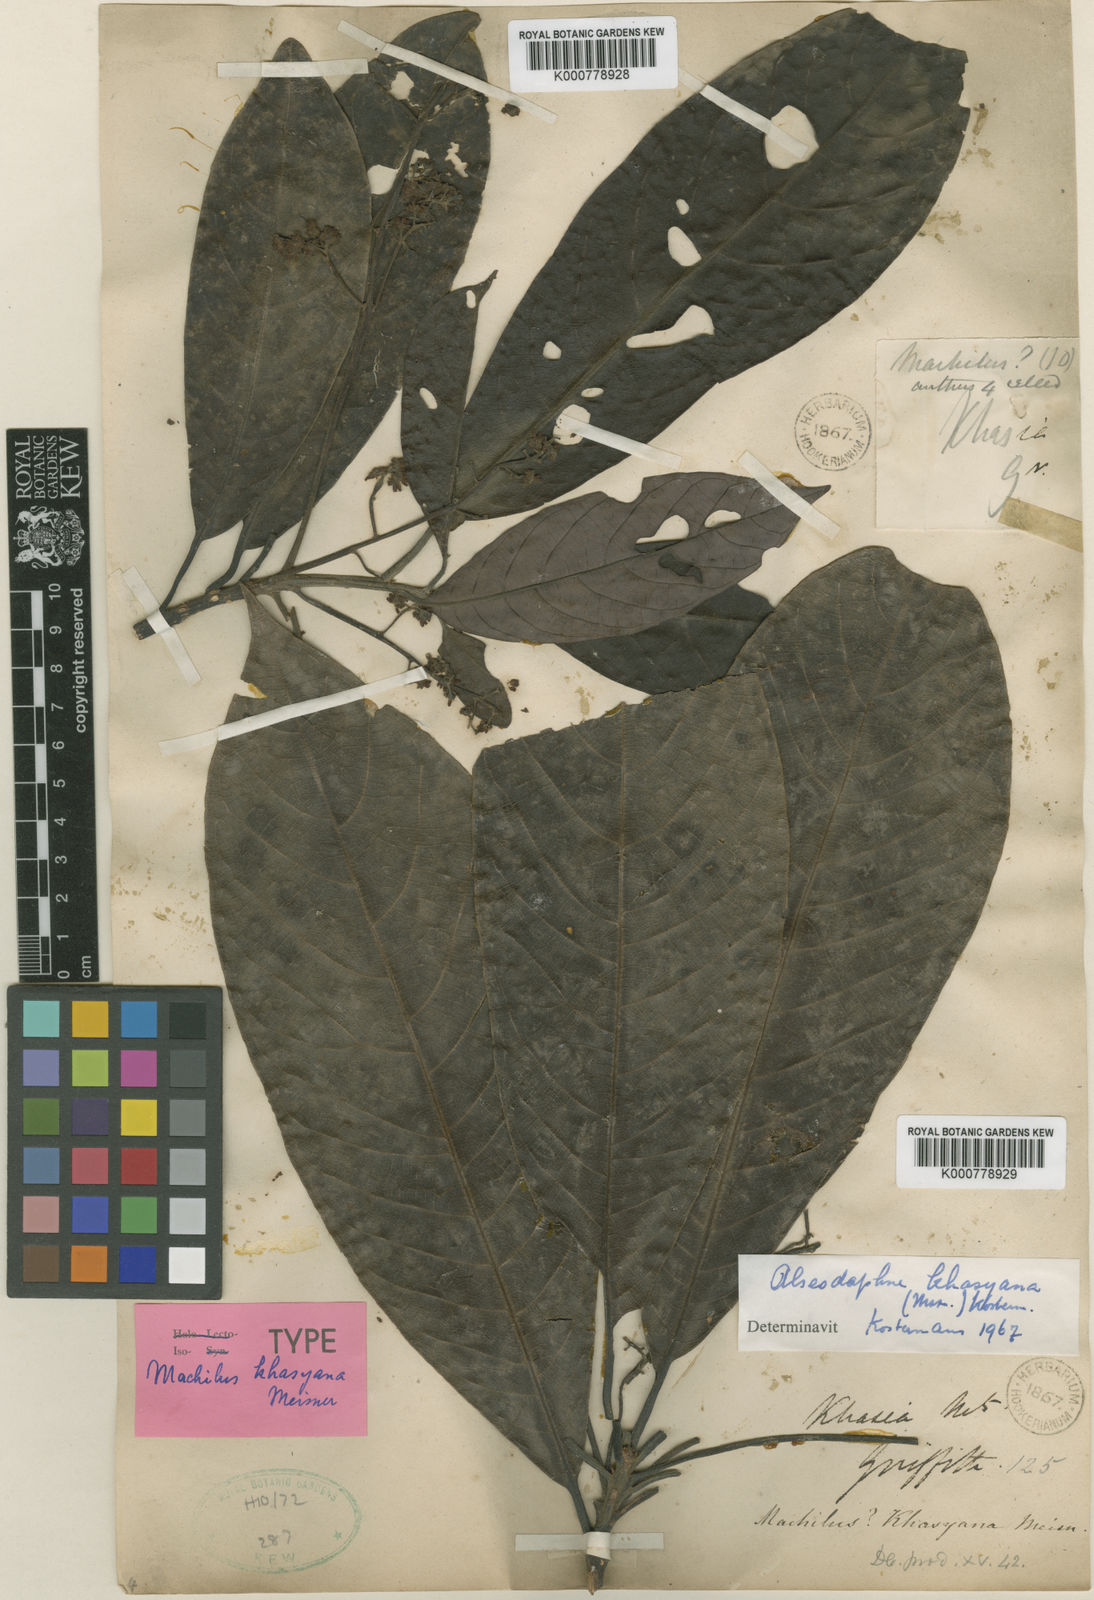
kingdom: Plantae
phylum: Tracheophyta
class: Magnoliopsida
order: Laurales
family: Lauraceae
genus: Alseodaphne
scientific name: Alseodaphne elongata
